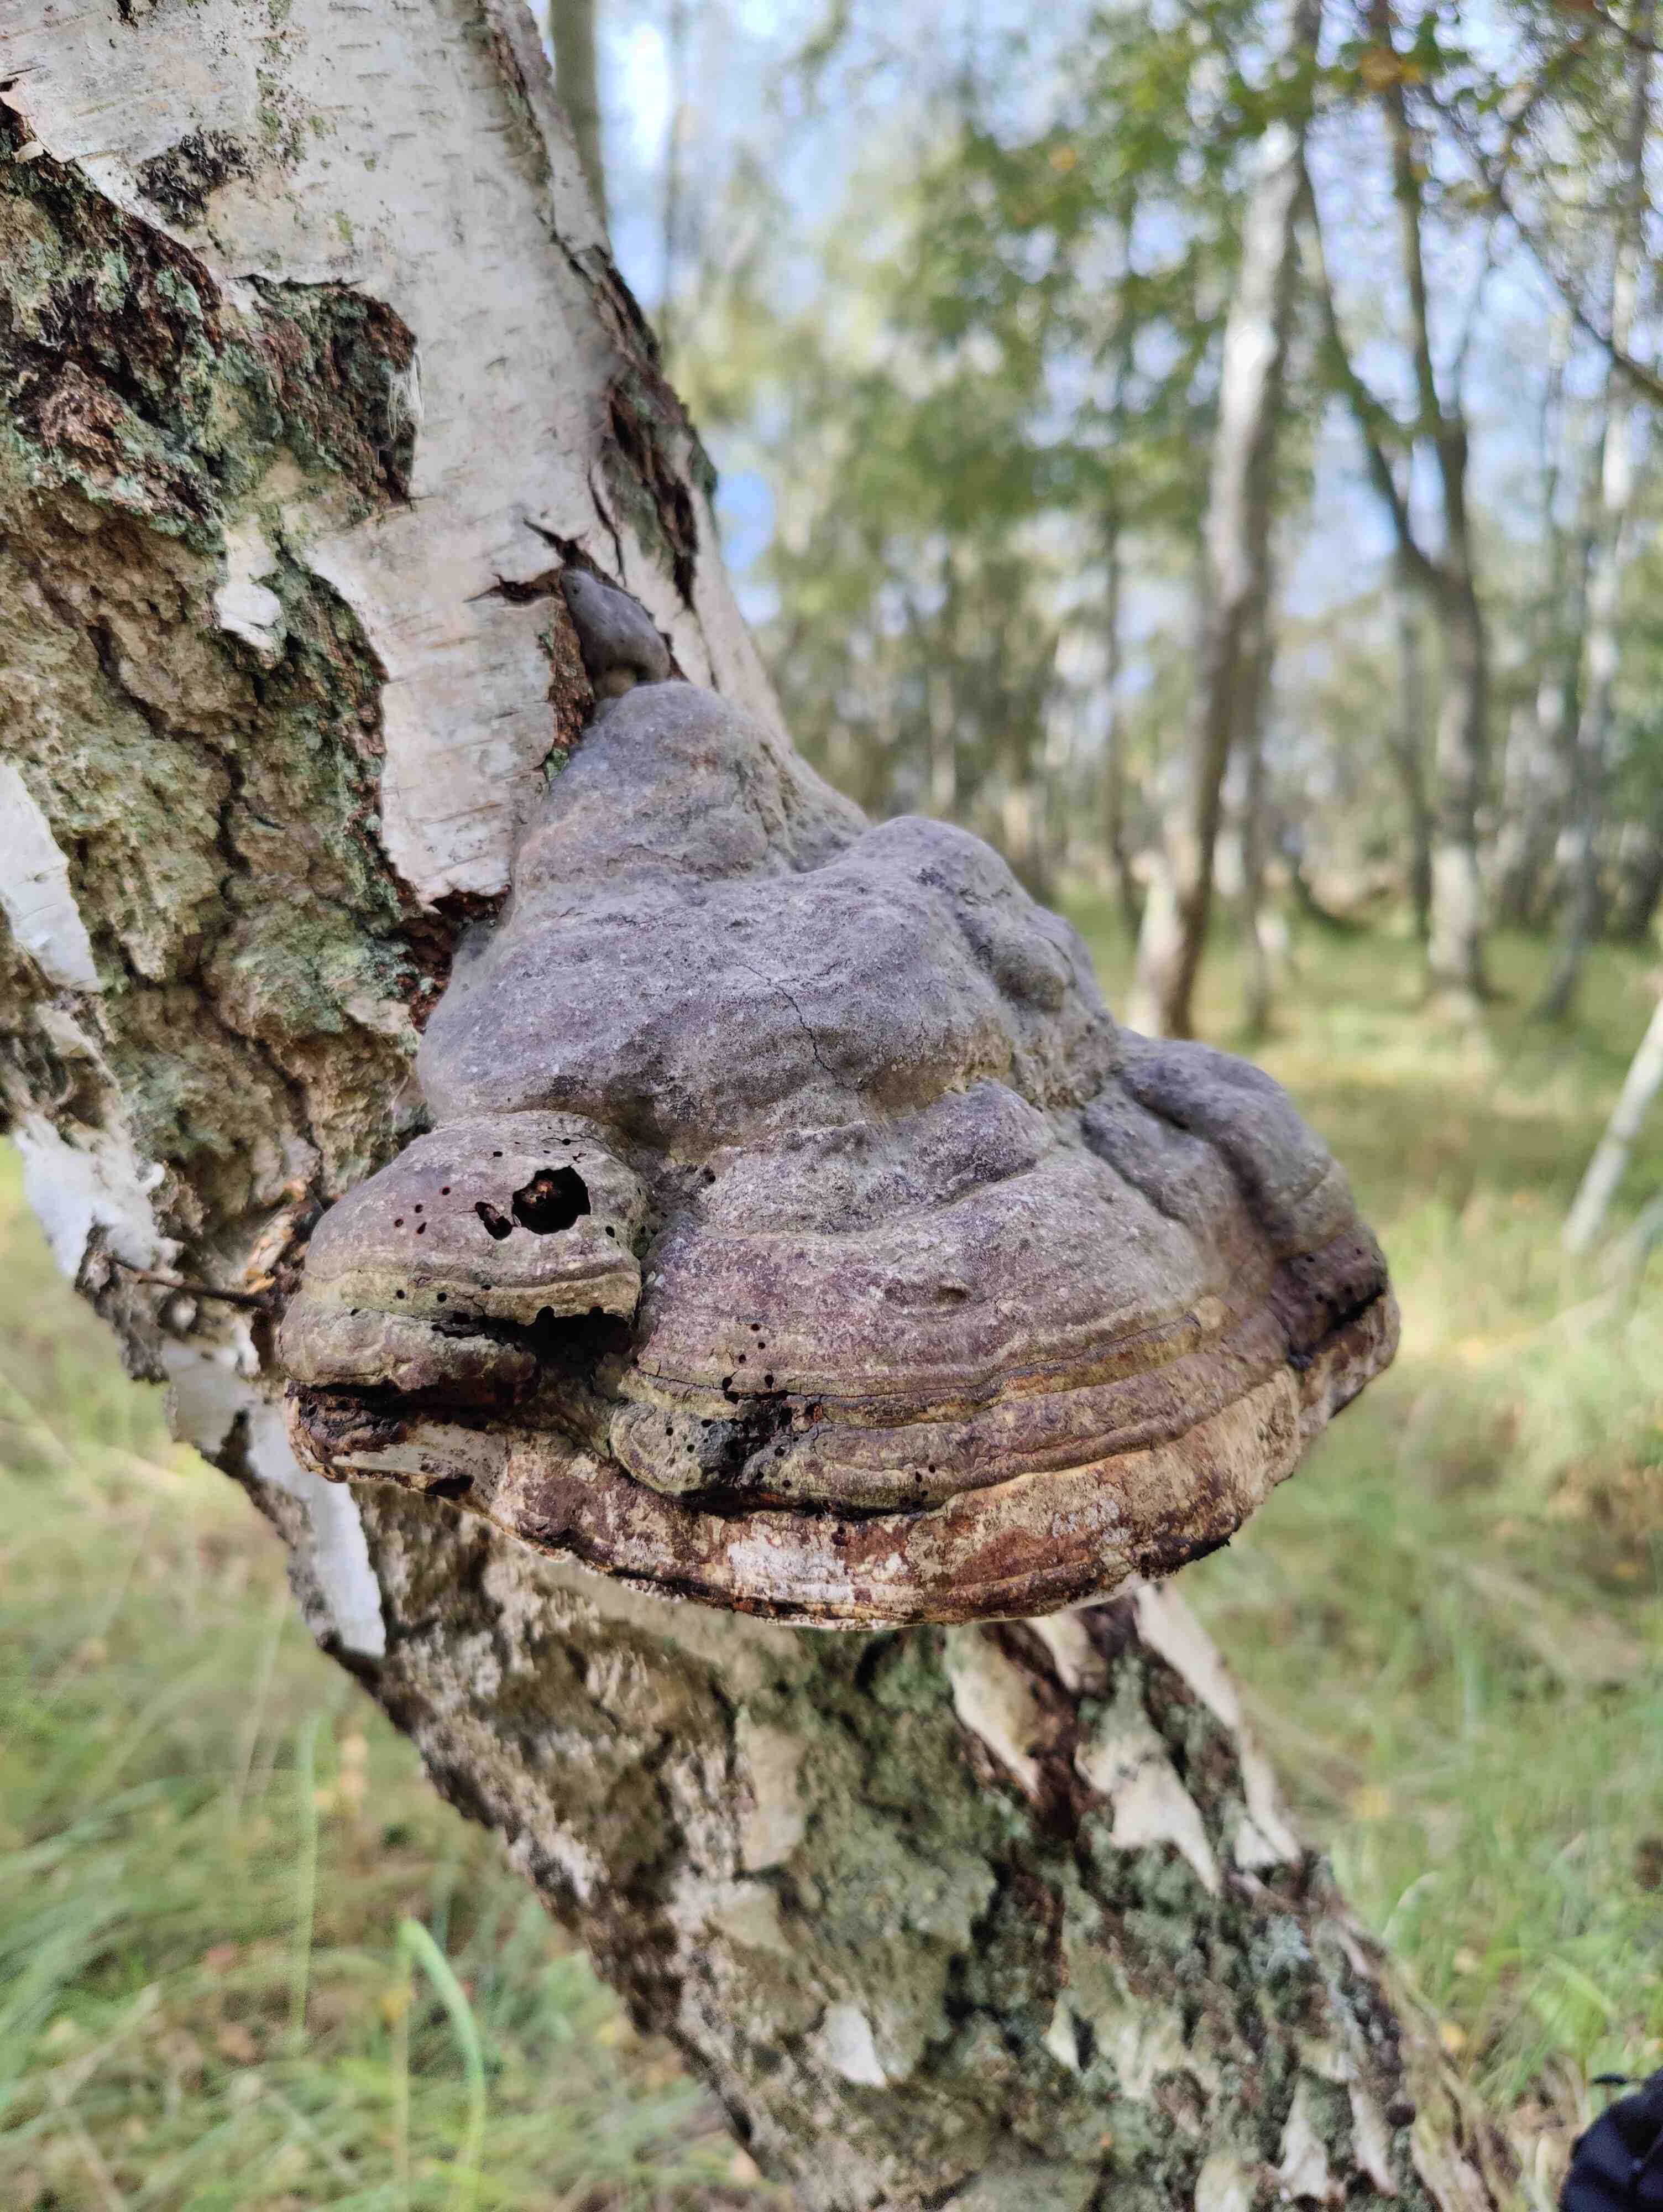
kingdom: Fungi
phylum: Basidiomycota
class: Agaricomycetes
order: Polyporales
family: Polyporaceae
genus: Fomes
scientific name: Fomes fomentarius
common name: tøndersvamp
